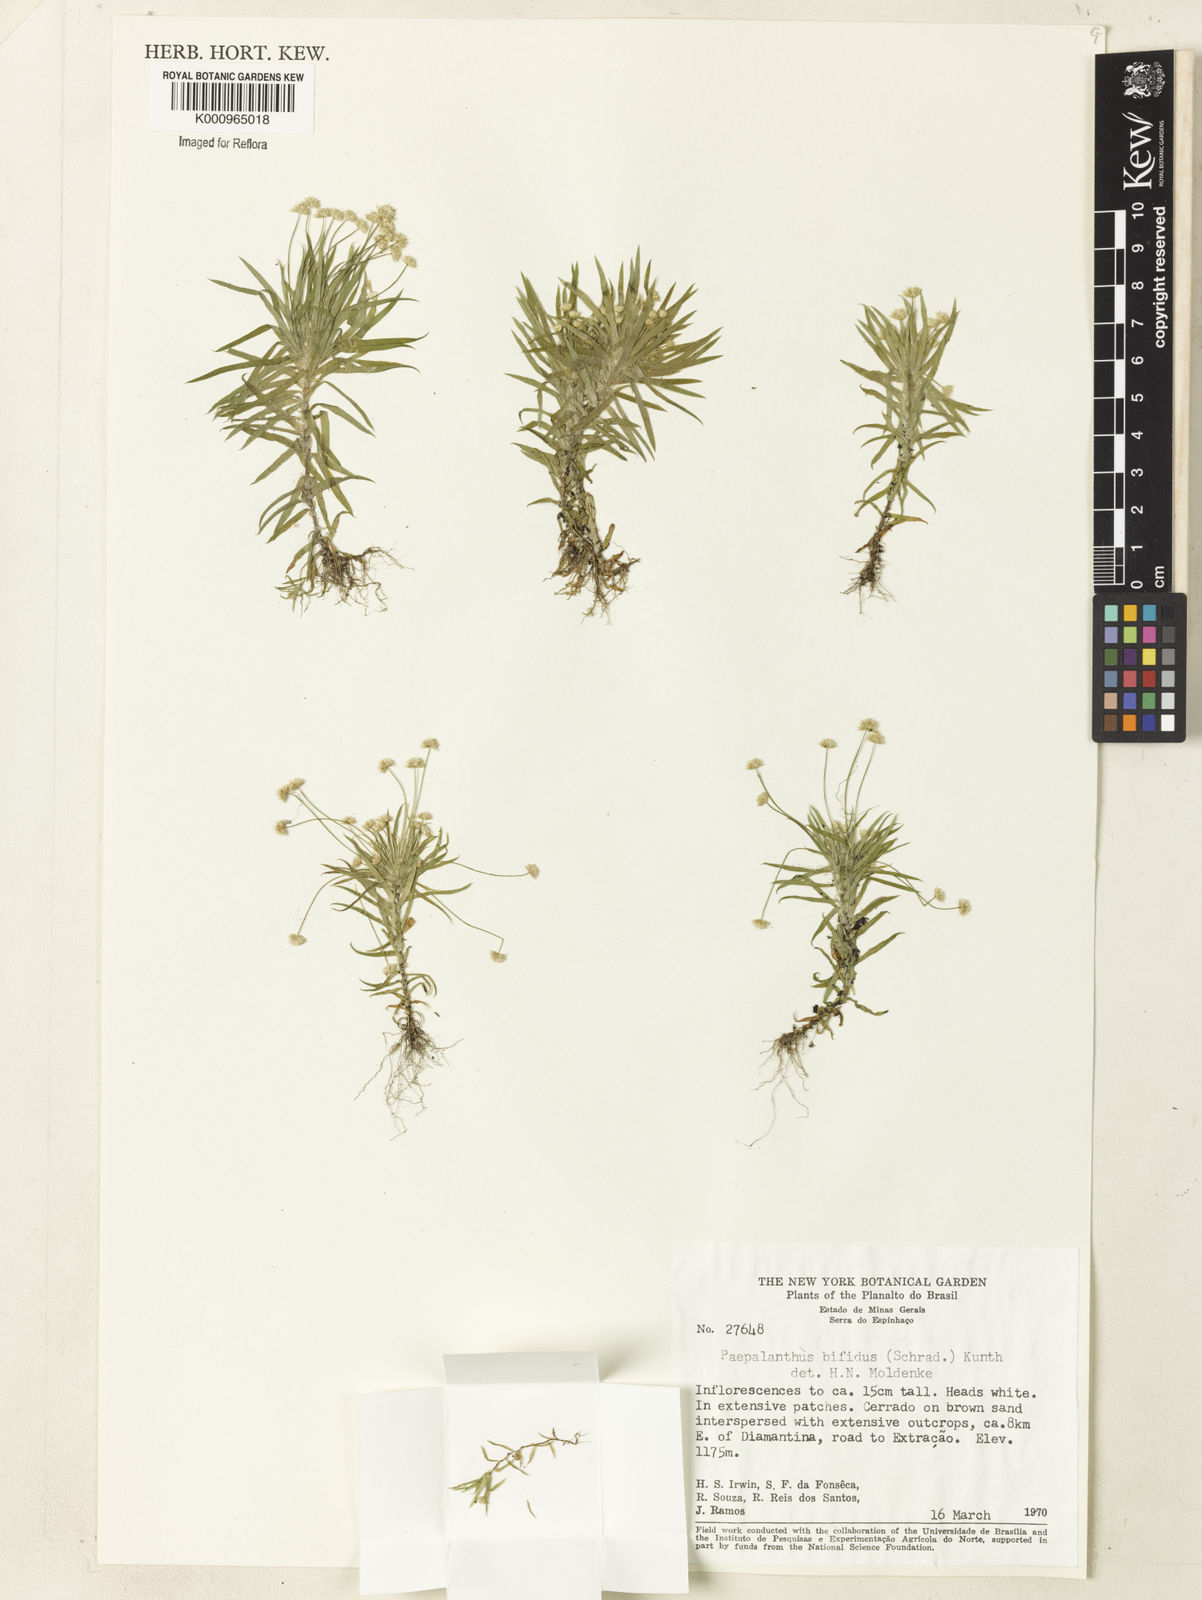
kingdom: Plantae
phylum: Tracheophyta
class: Liliopsida
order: Poales
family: Eriocaulaceae
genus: Paepalanthus
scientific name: Paepalanthus bifidus
